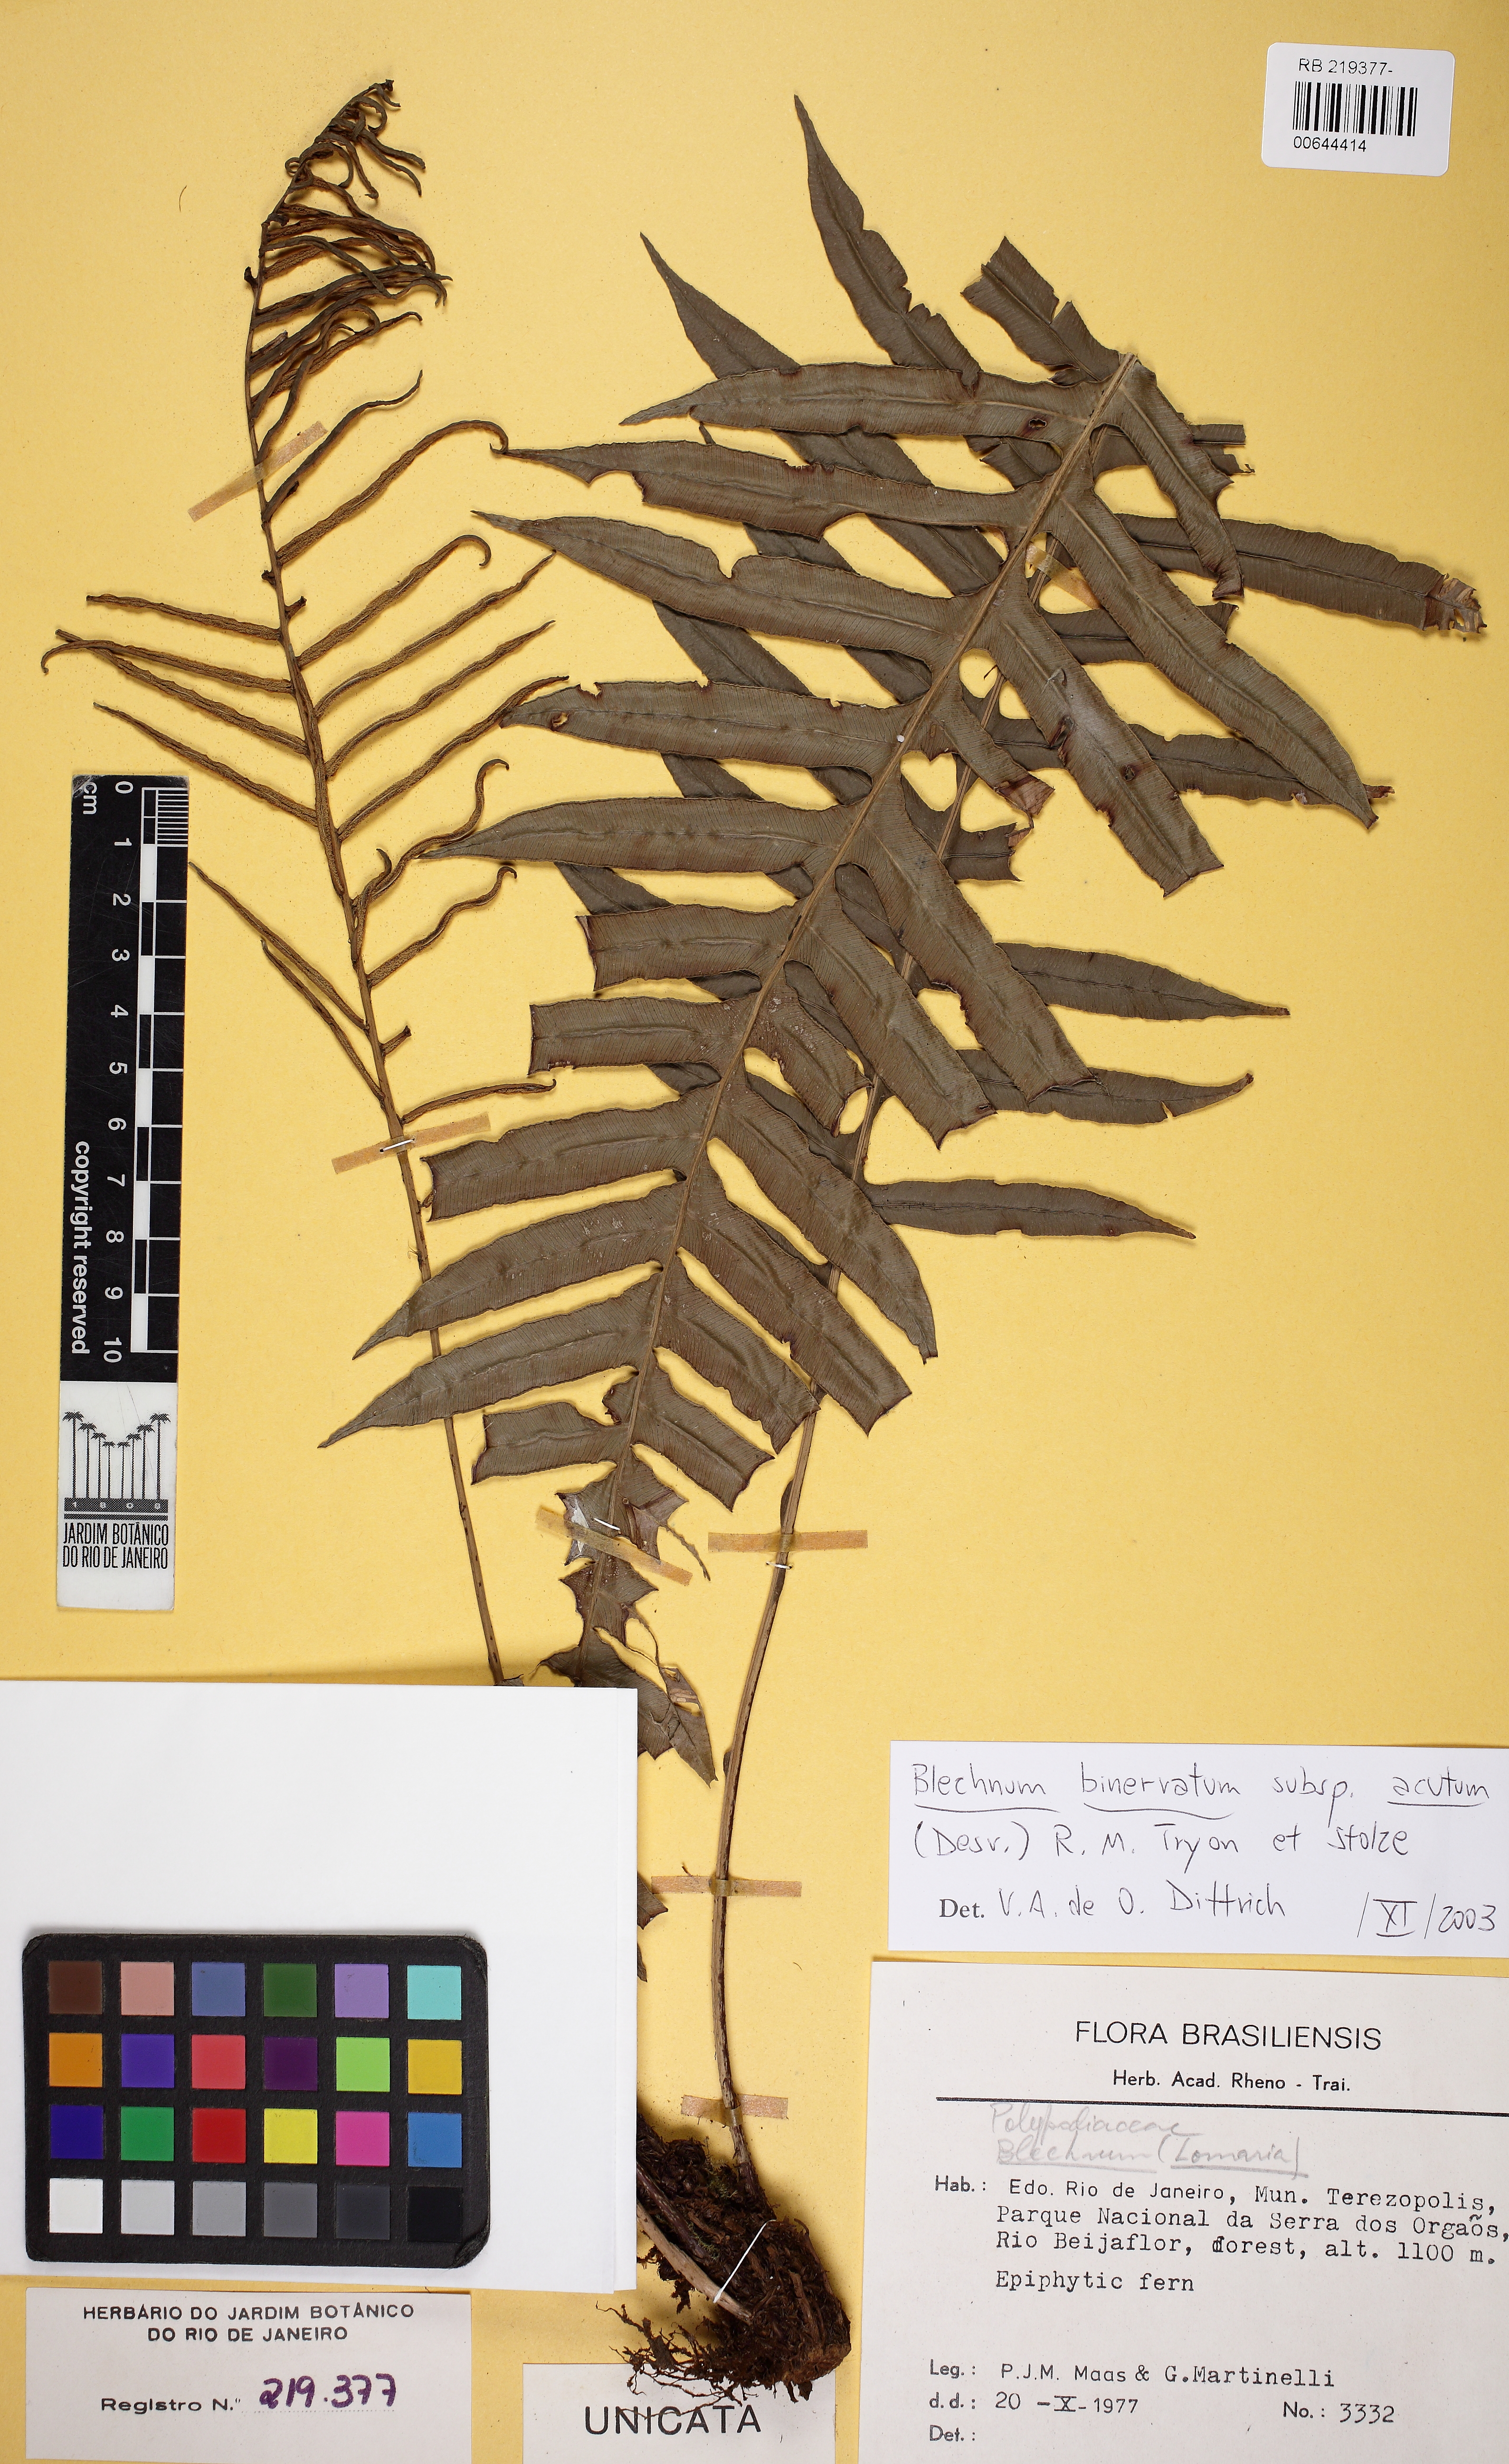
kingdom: Plantae
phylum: Tracheophyta
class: Polypodiopsida
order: Polypodiales
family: Blechnaceae
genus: Lomaridium
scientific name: Lomaridium binervatum
